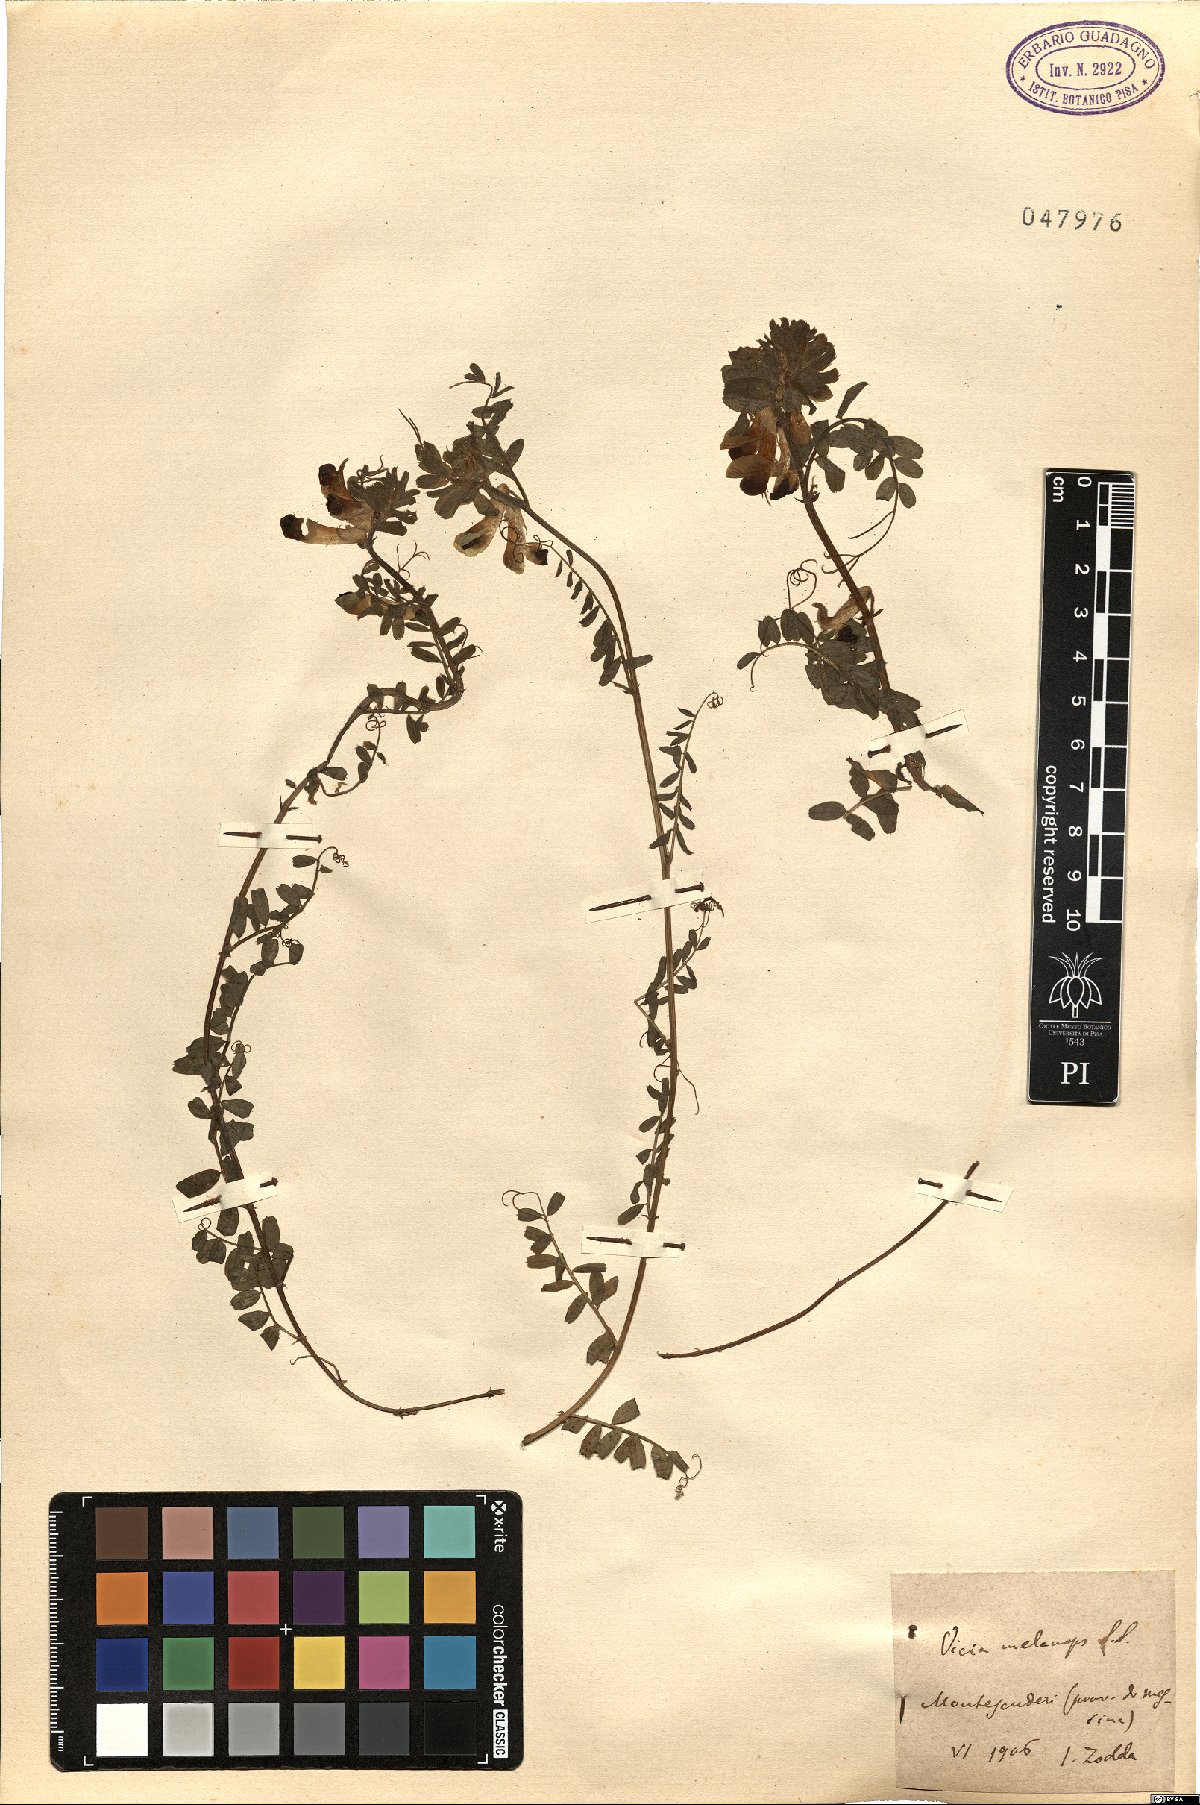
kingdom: Plantae
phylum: Tracheophyta
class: Magnoliopsida
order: Fabales
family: Fabaceae
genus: Vicia
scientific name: Vicia melanops
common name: Black-eyed vetch
